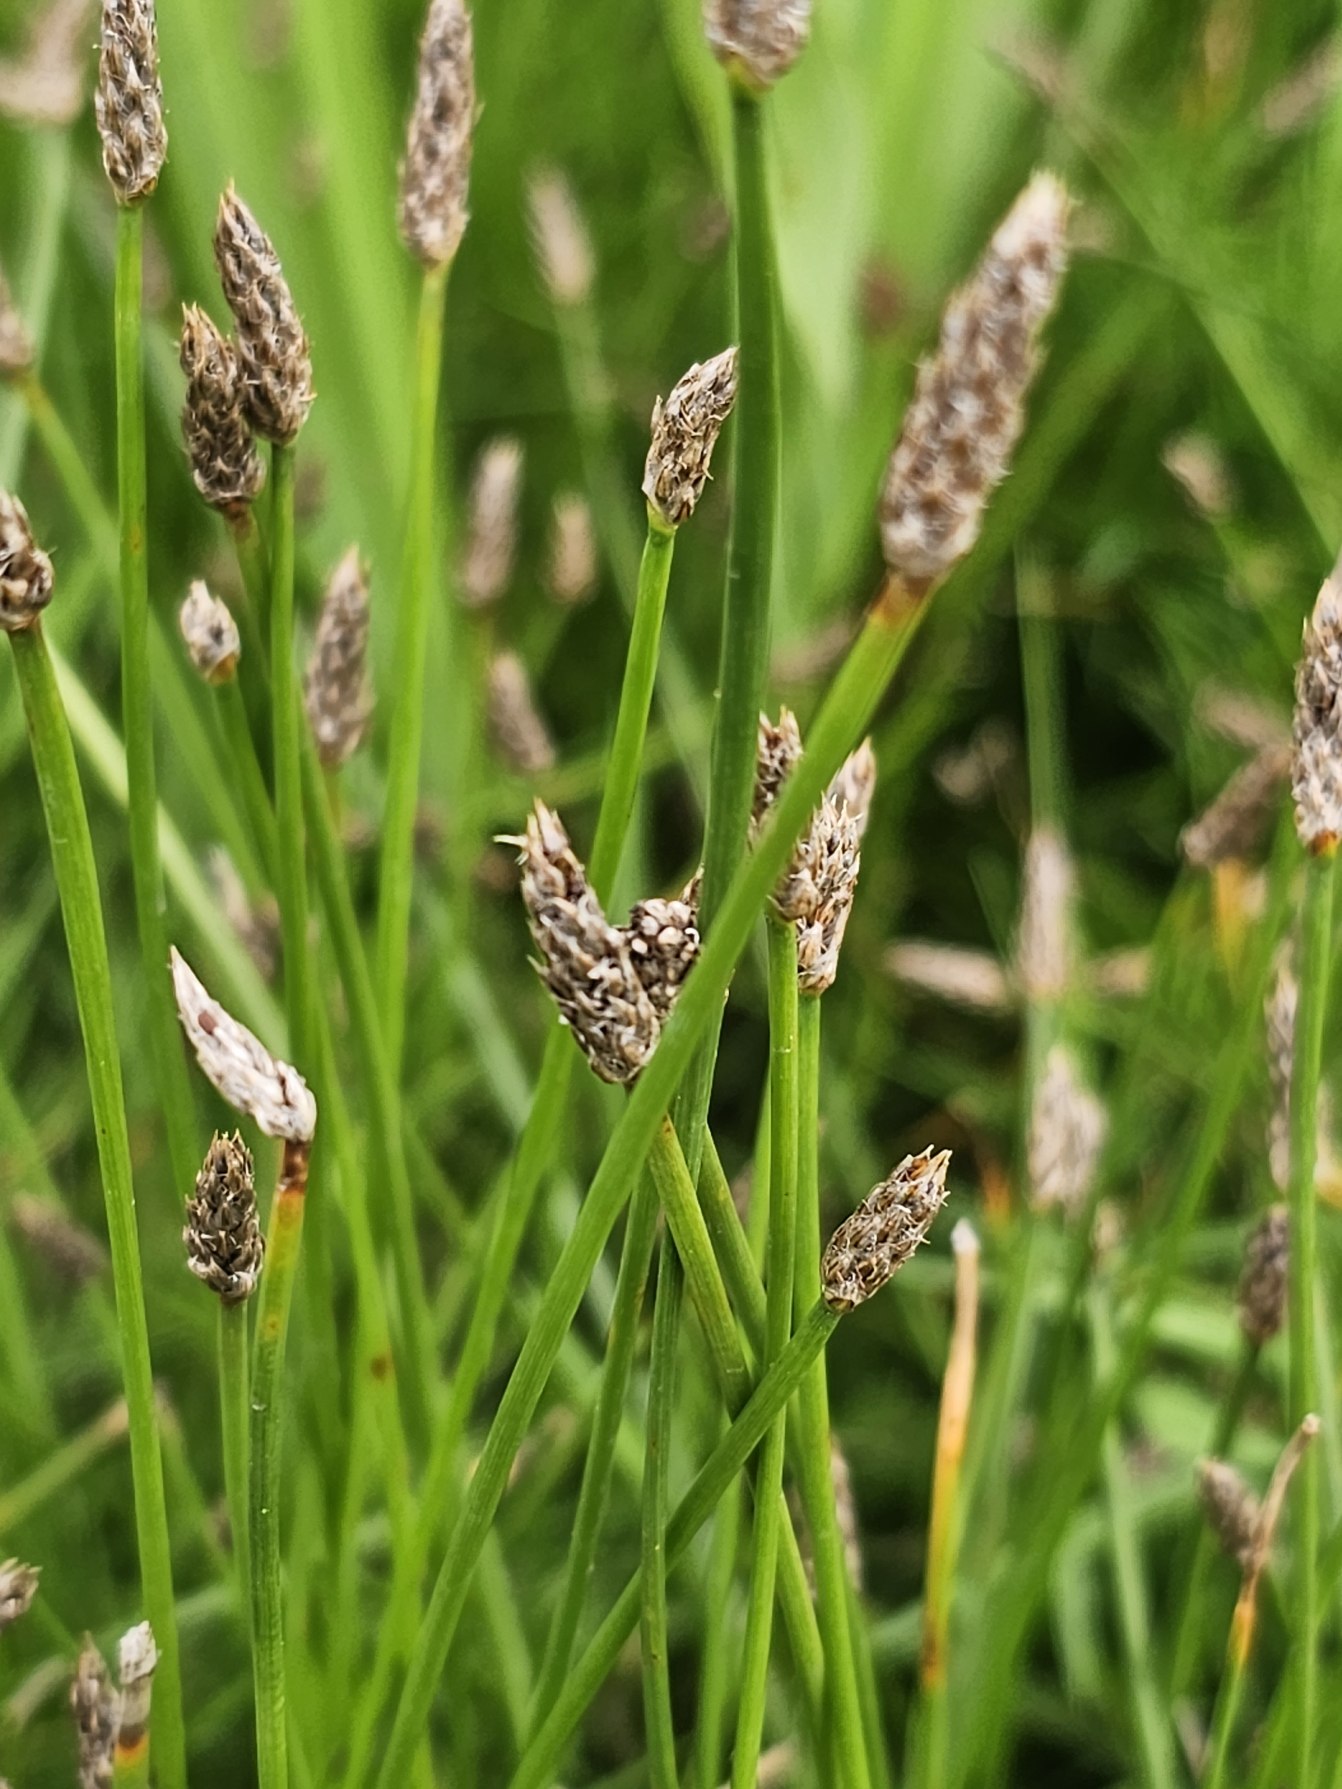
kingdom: Plantae
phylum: Tracheophyta
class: Liliopsida
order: Poales
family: Cyperaceae
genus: Eleocharis
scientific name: Eleocharis palustris
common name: Almindelig sumpstrå
